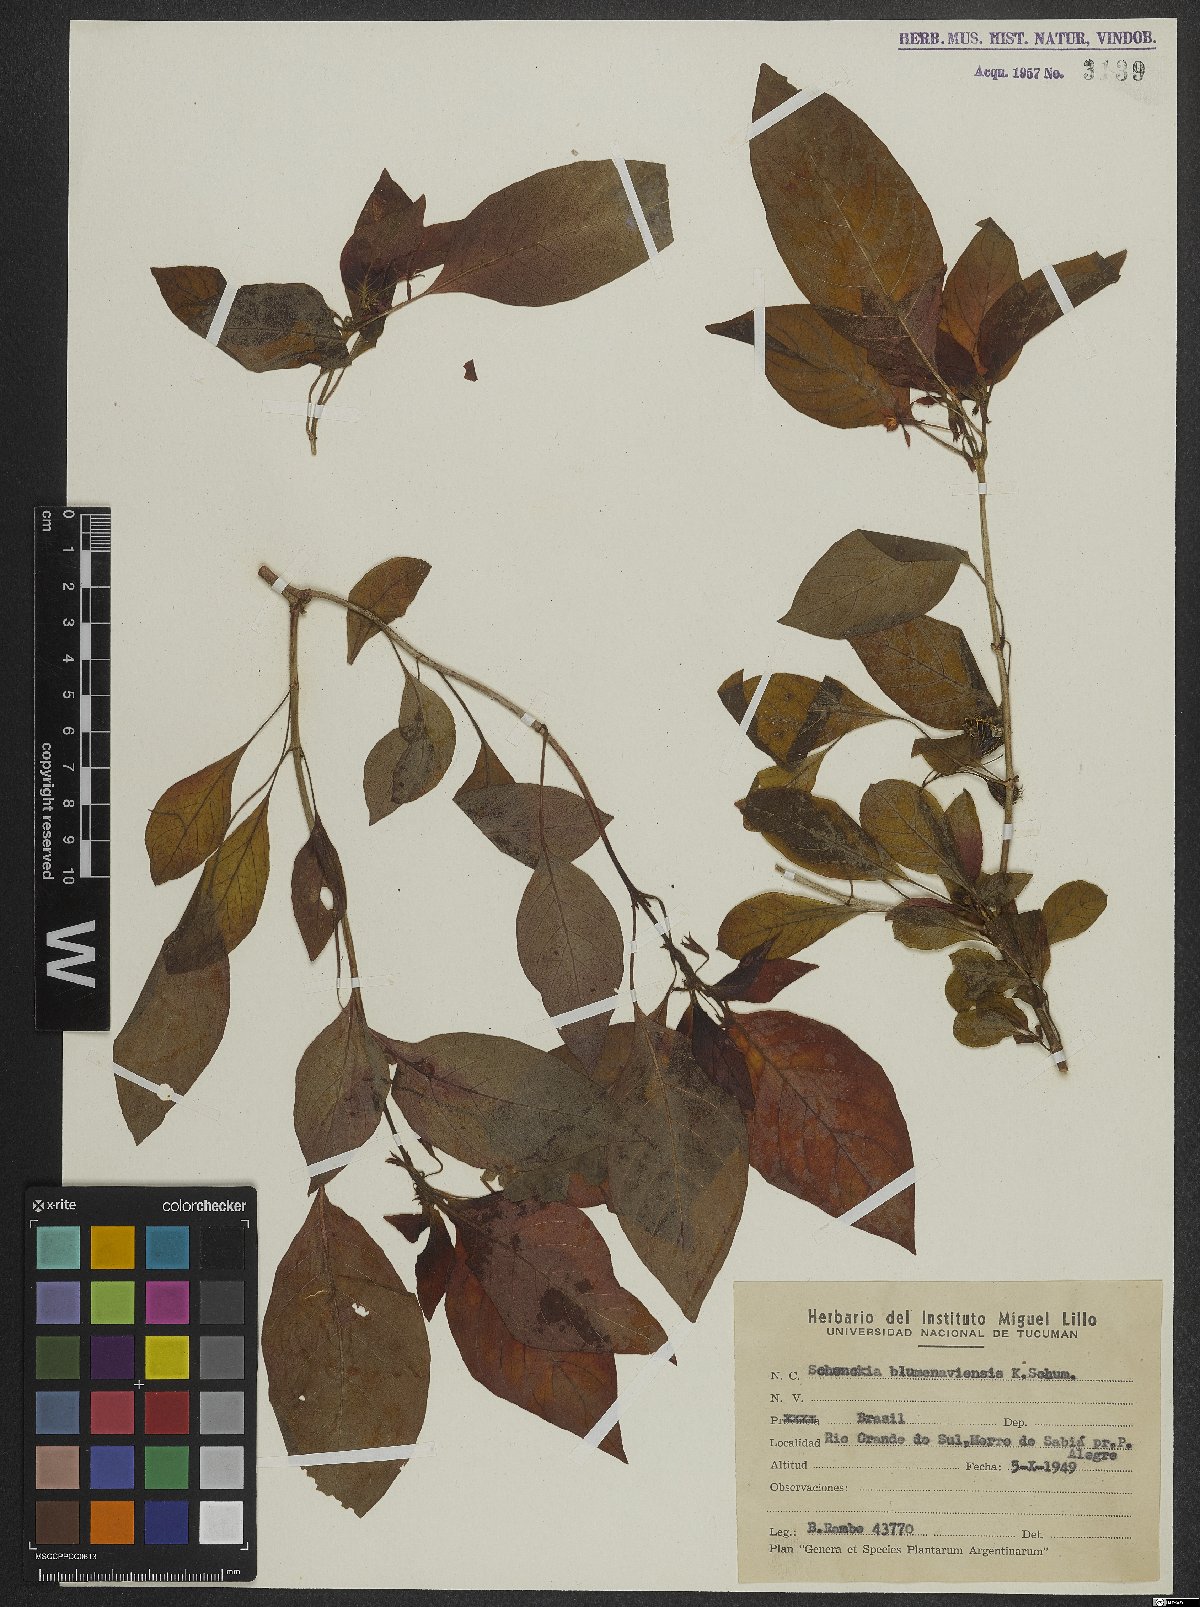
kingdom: Plantae
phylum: Tracheophyta
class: Magnoliopsida
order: Gentianales
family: Rubiaceae
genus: Deppea
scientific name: Deppea blumenaviensis
